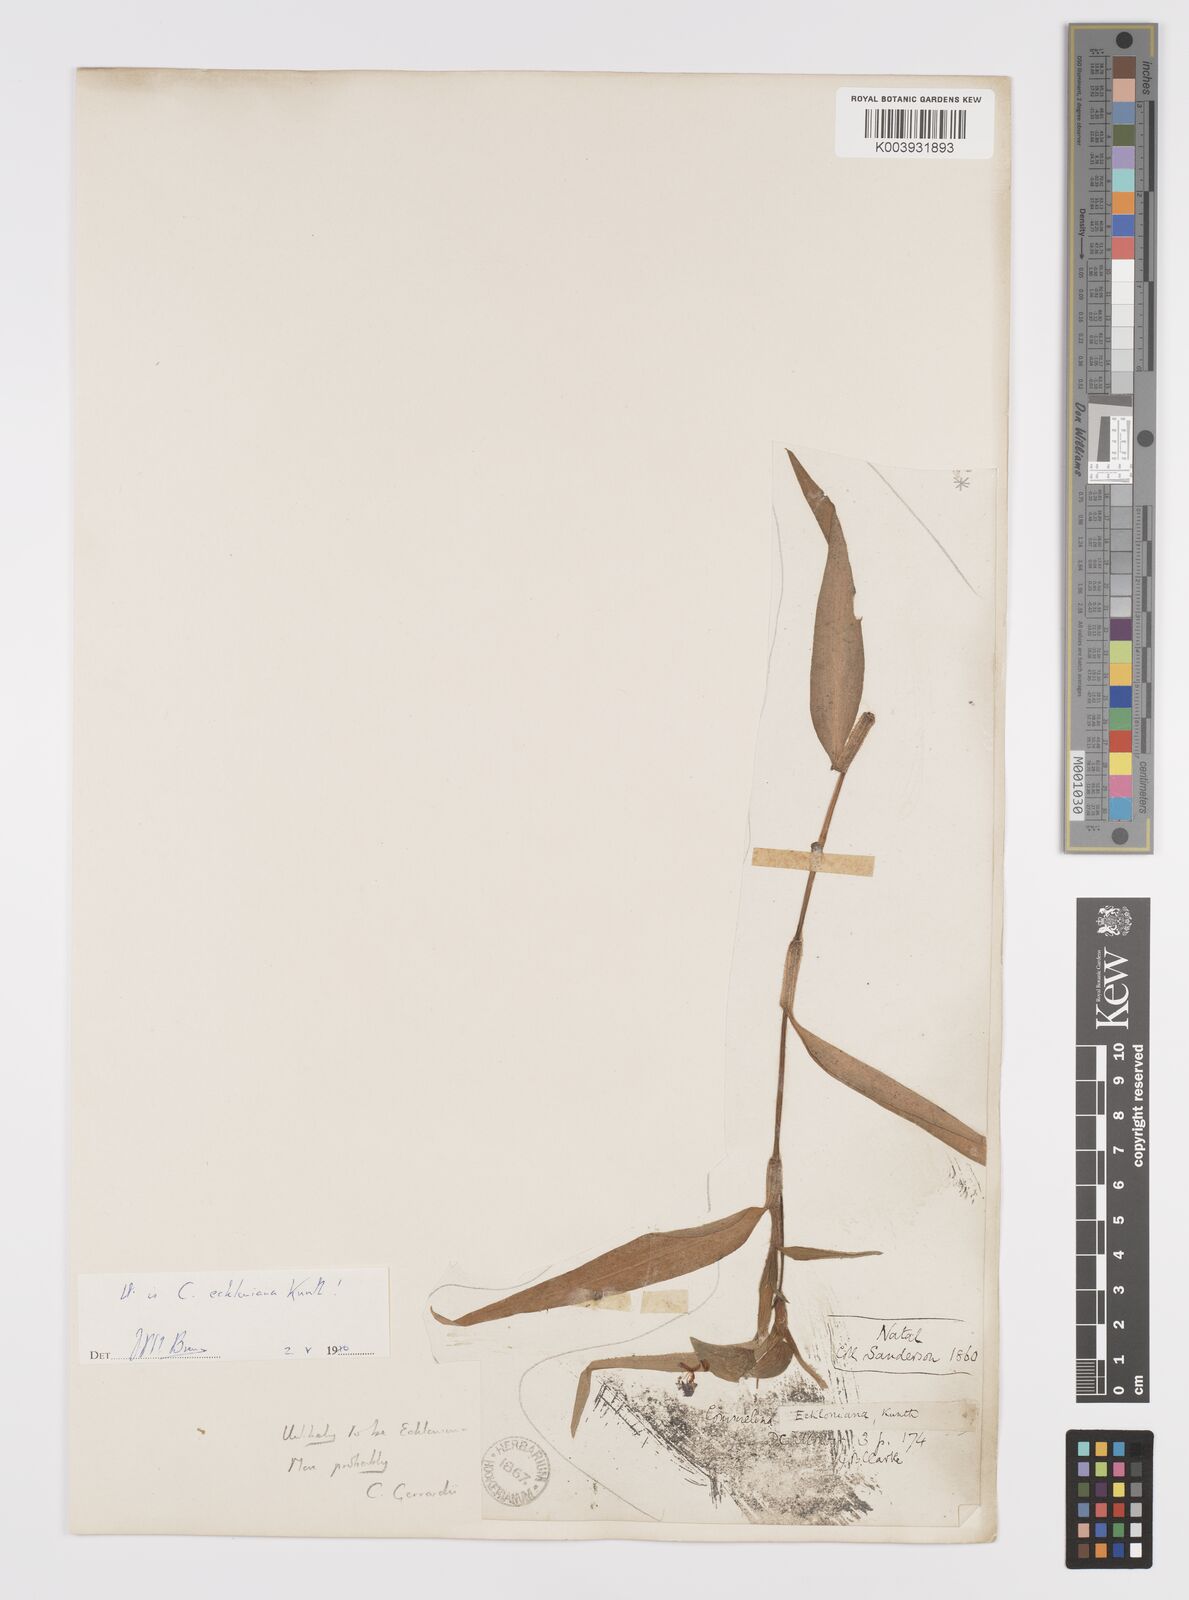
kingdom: Plantae
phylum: Tracheophyta
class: Liliopsida
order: Commelinales
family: Commelinaceae
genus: Commelina
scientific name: Commelina eckloniana
